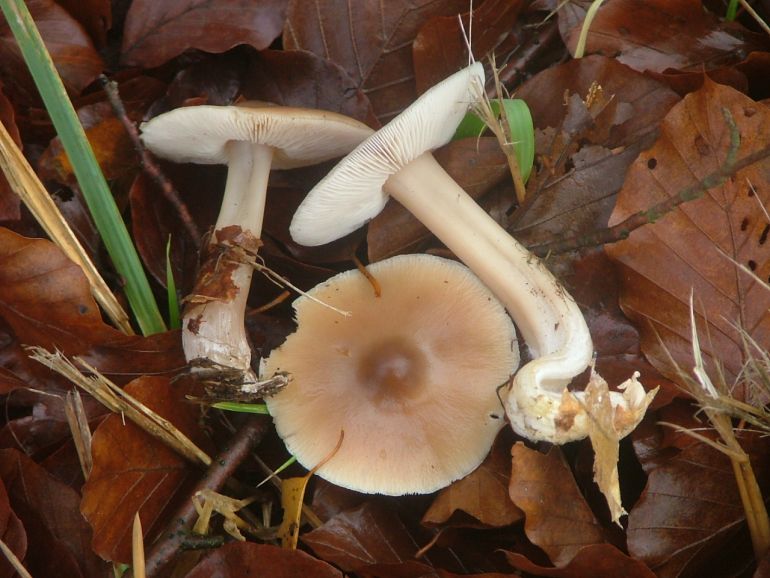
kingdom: Fungi
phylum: Basidiomycota
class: Agaricomycetes
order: Agaricales
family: Omphalotaceae
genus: Rhodocollybia
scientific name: Rhodocollybia asema
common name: horngrå fladhat
